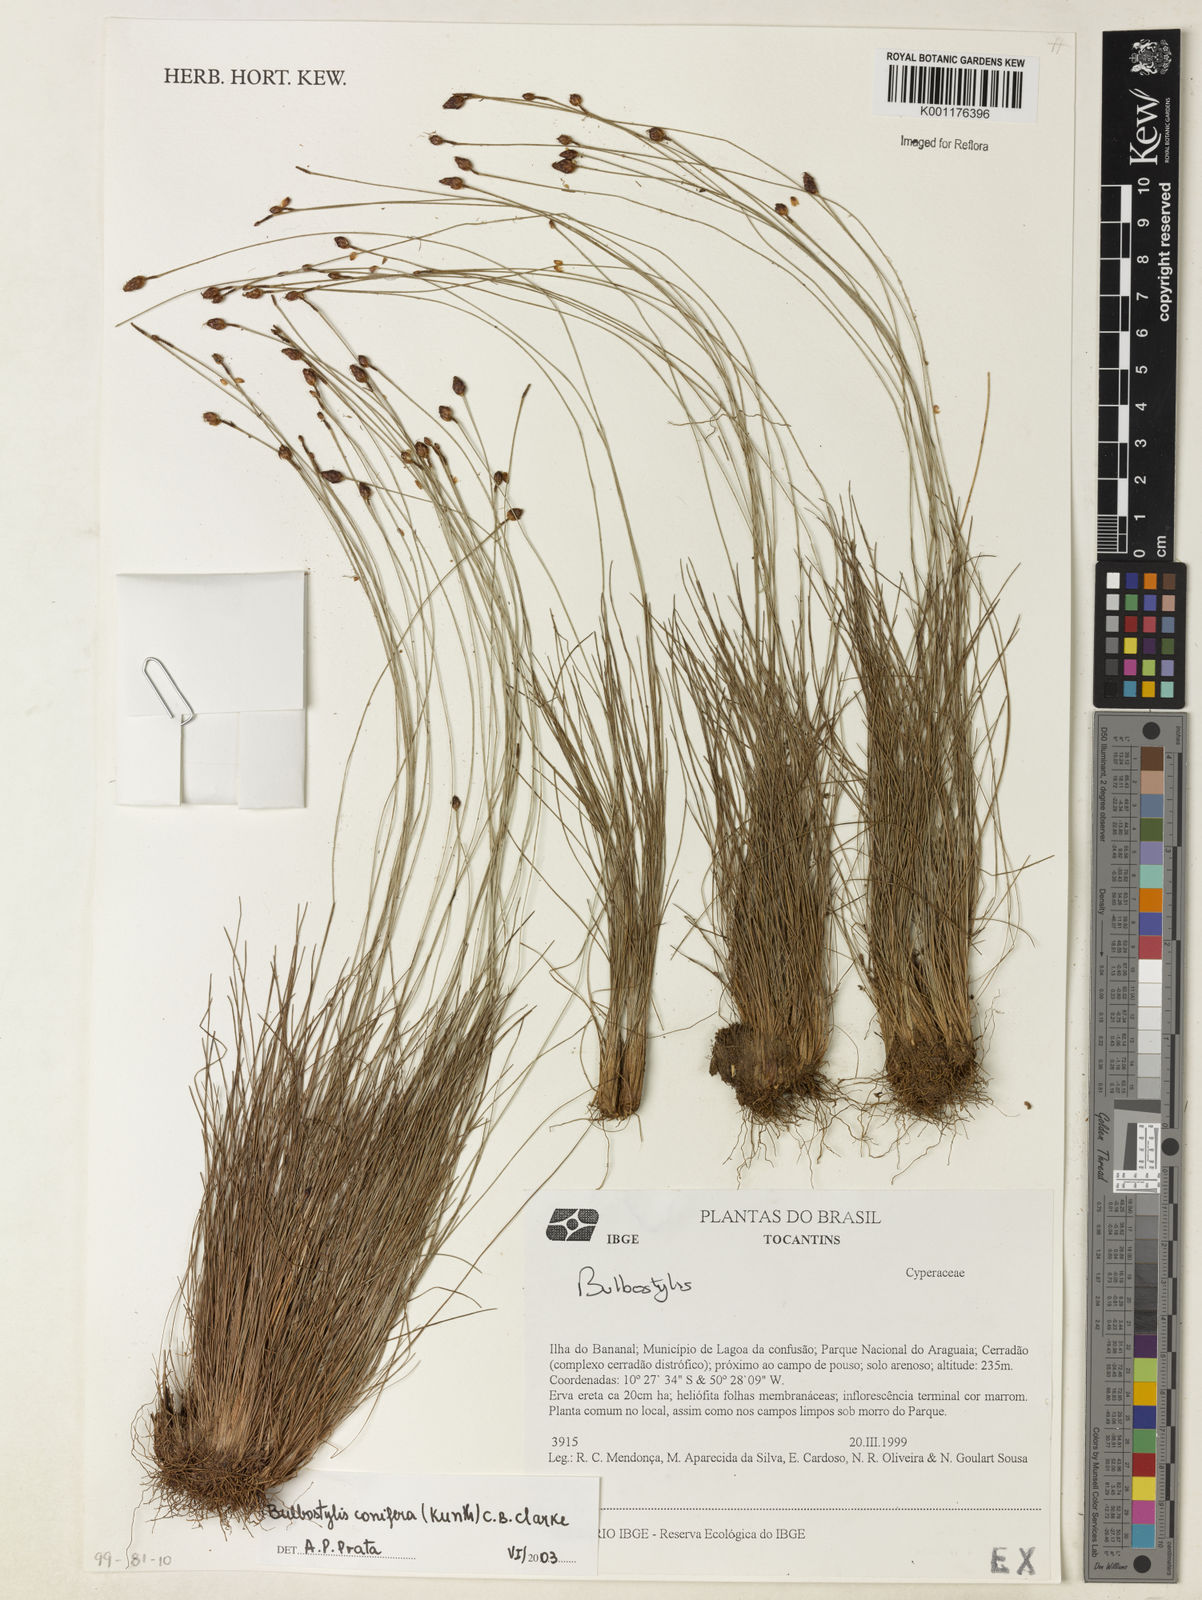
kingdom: Plantae
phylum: Tracheophyta
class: Liliopsida
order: Poales
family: Cyperaceae
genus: Bulbostylis
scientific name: Bulbostylis conifera
